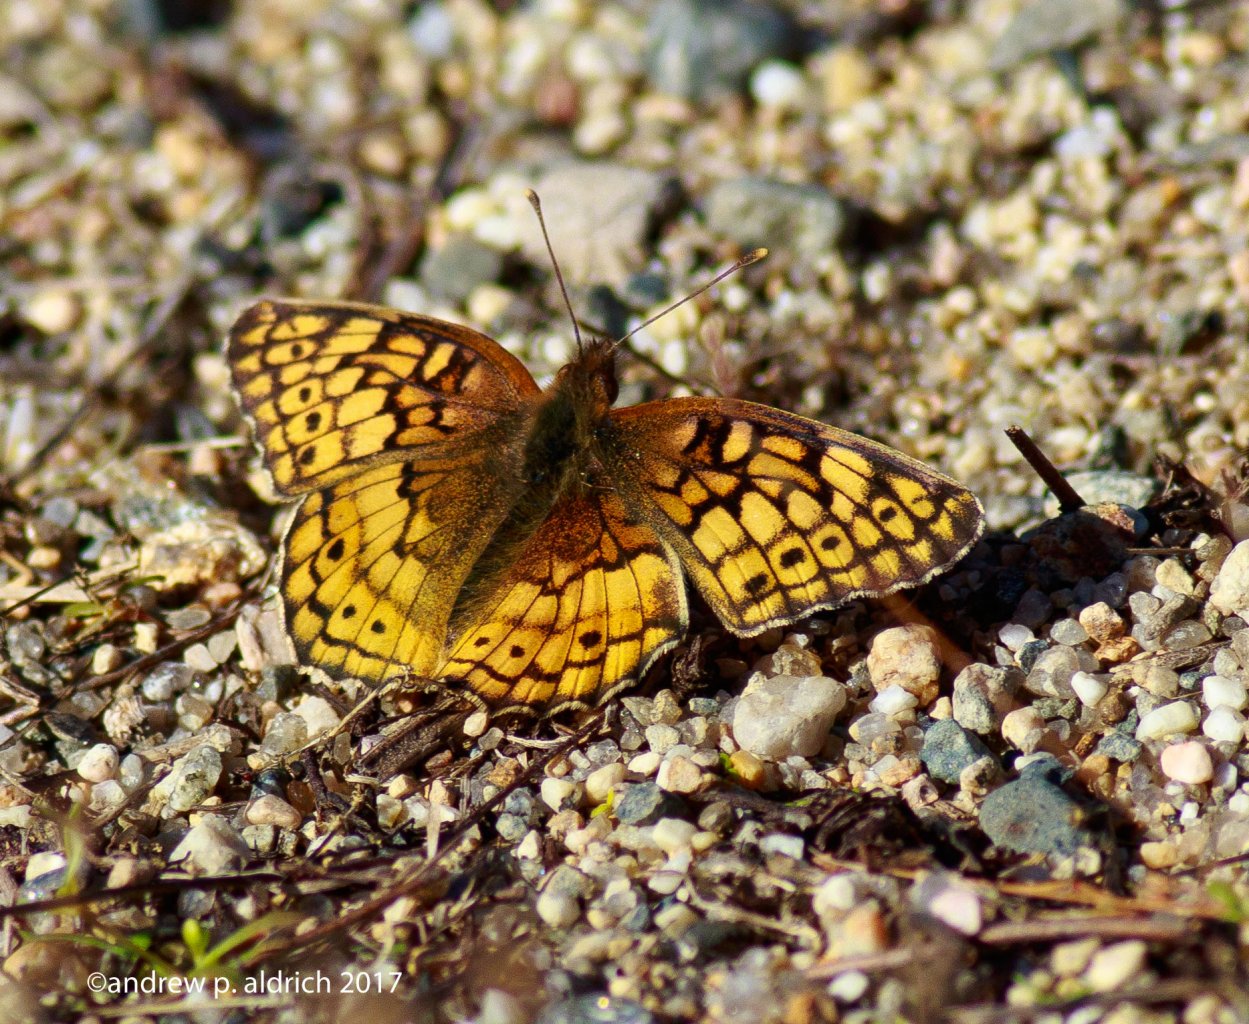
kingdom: Animalia
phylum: Arthropoda
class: Insecta
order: Lepidoptera
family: Nymphalidae
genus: Euptoieta
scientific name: Euptoieta claudia
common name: Variegated Fritillary
